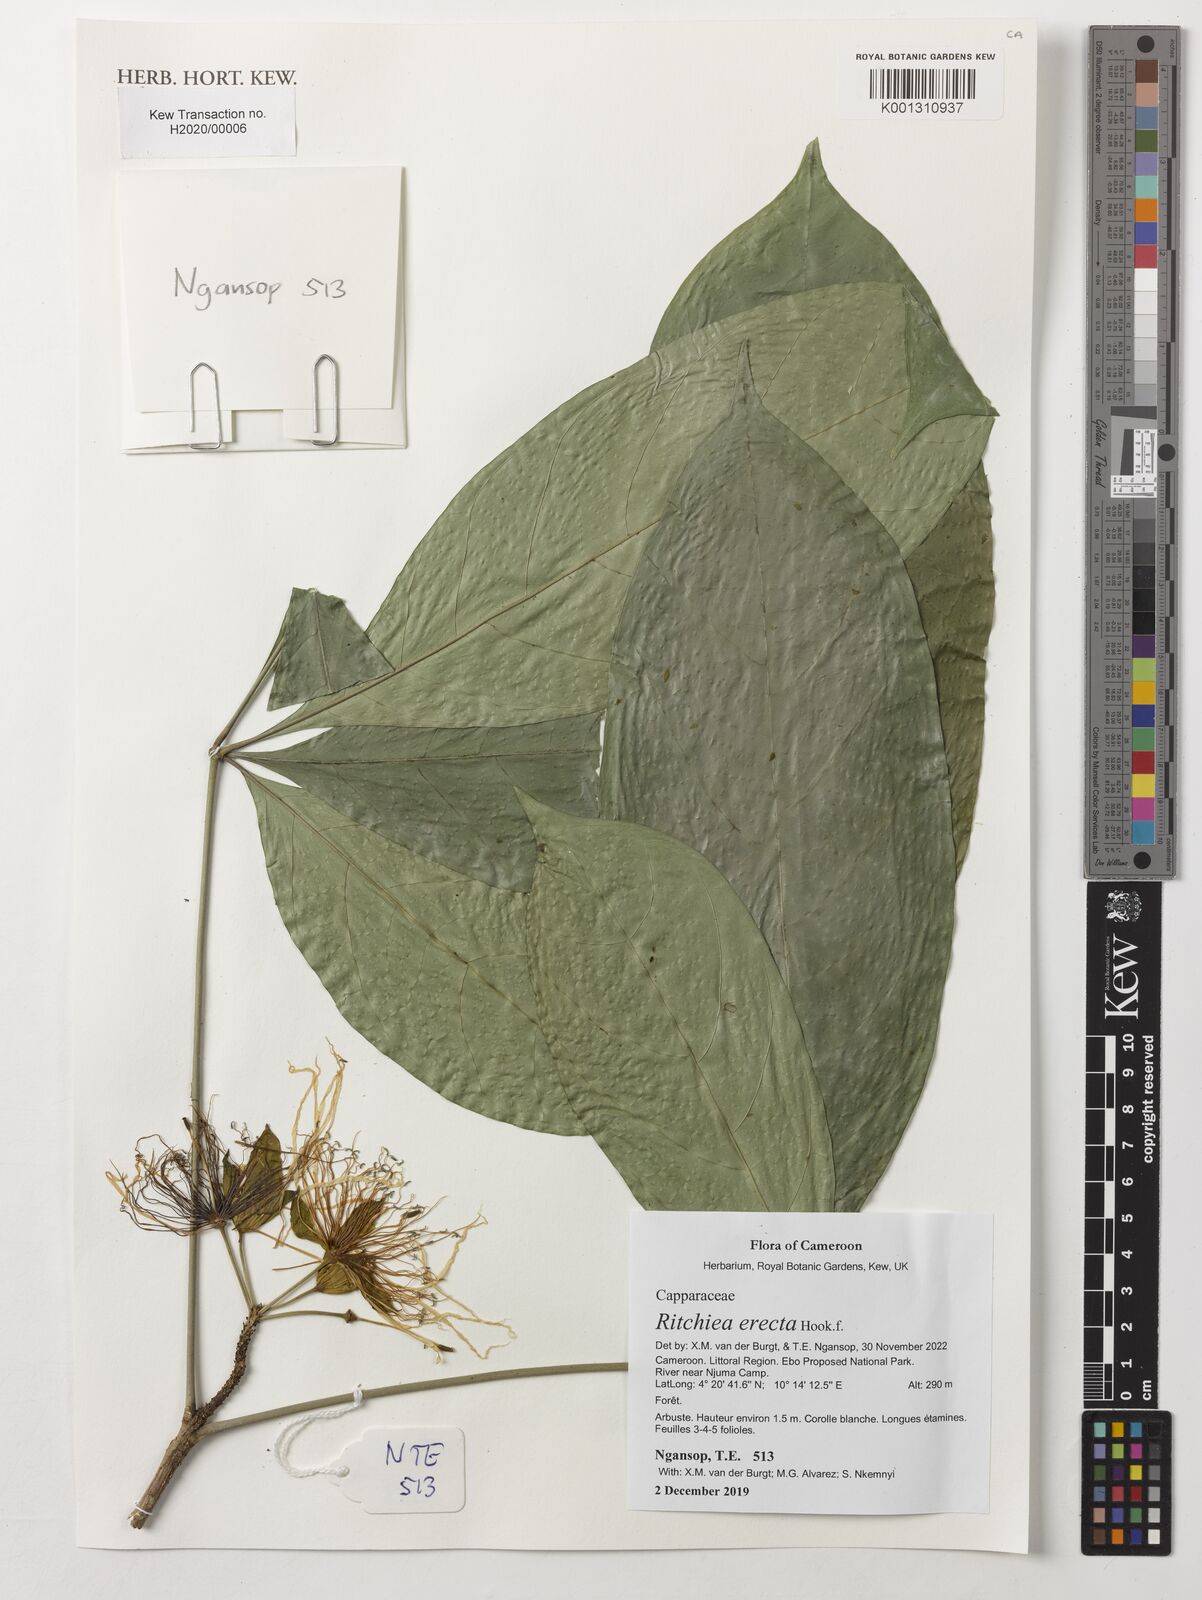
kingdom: Plantae
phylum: Tracheophyta
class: Magnoliopsida
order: Brassicales
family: Capparaceae
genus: Ritchiea
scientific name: Ritchiea erecta
